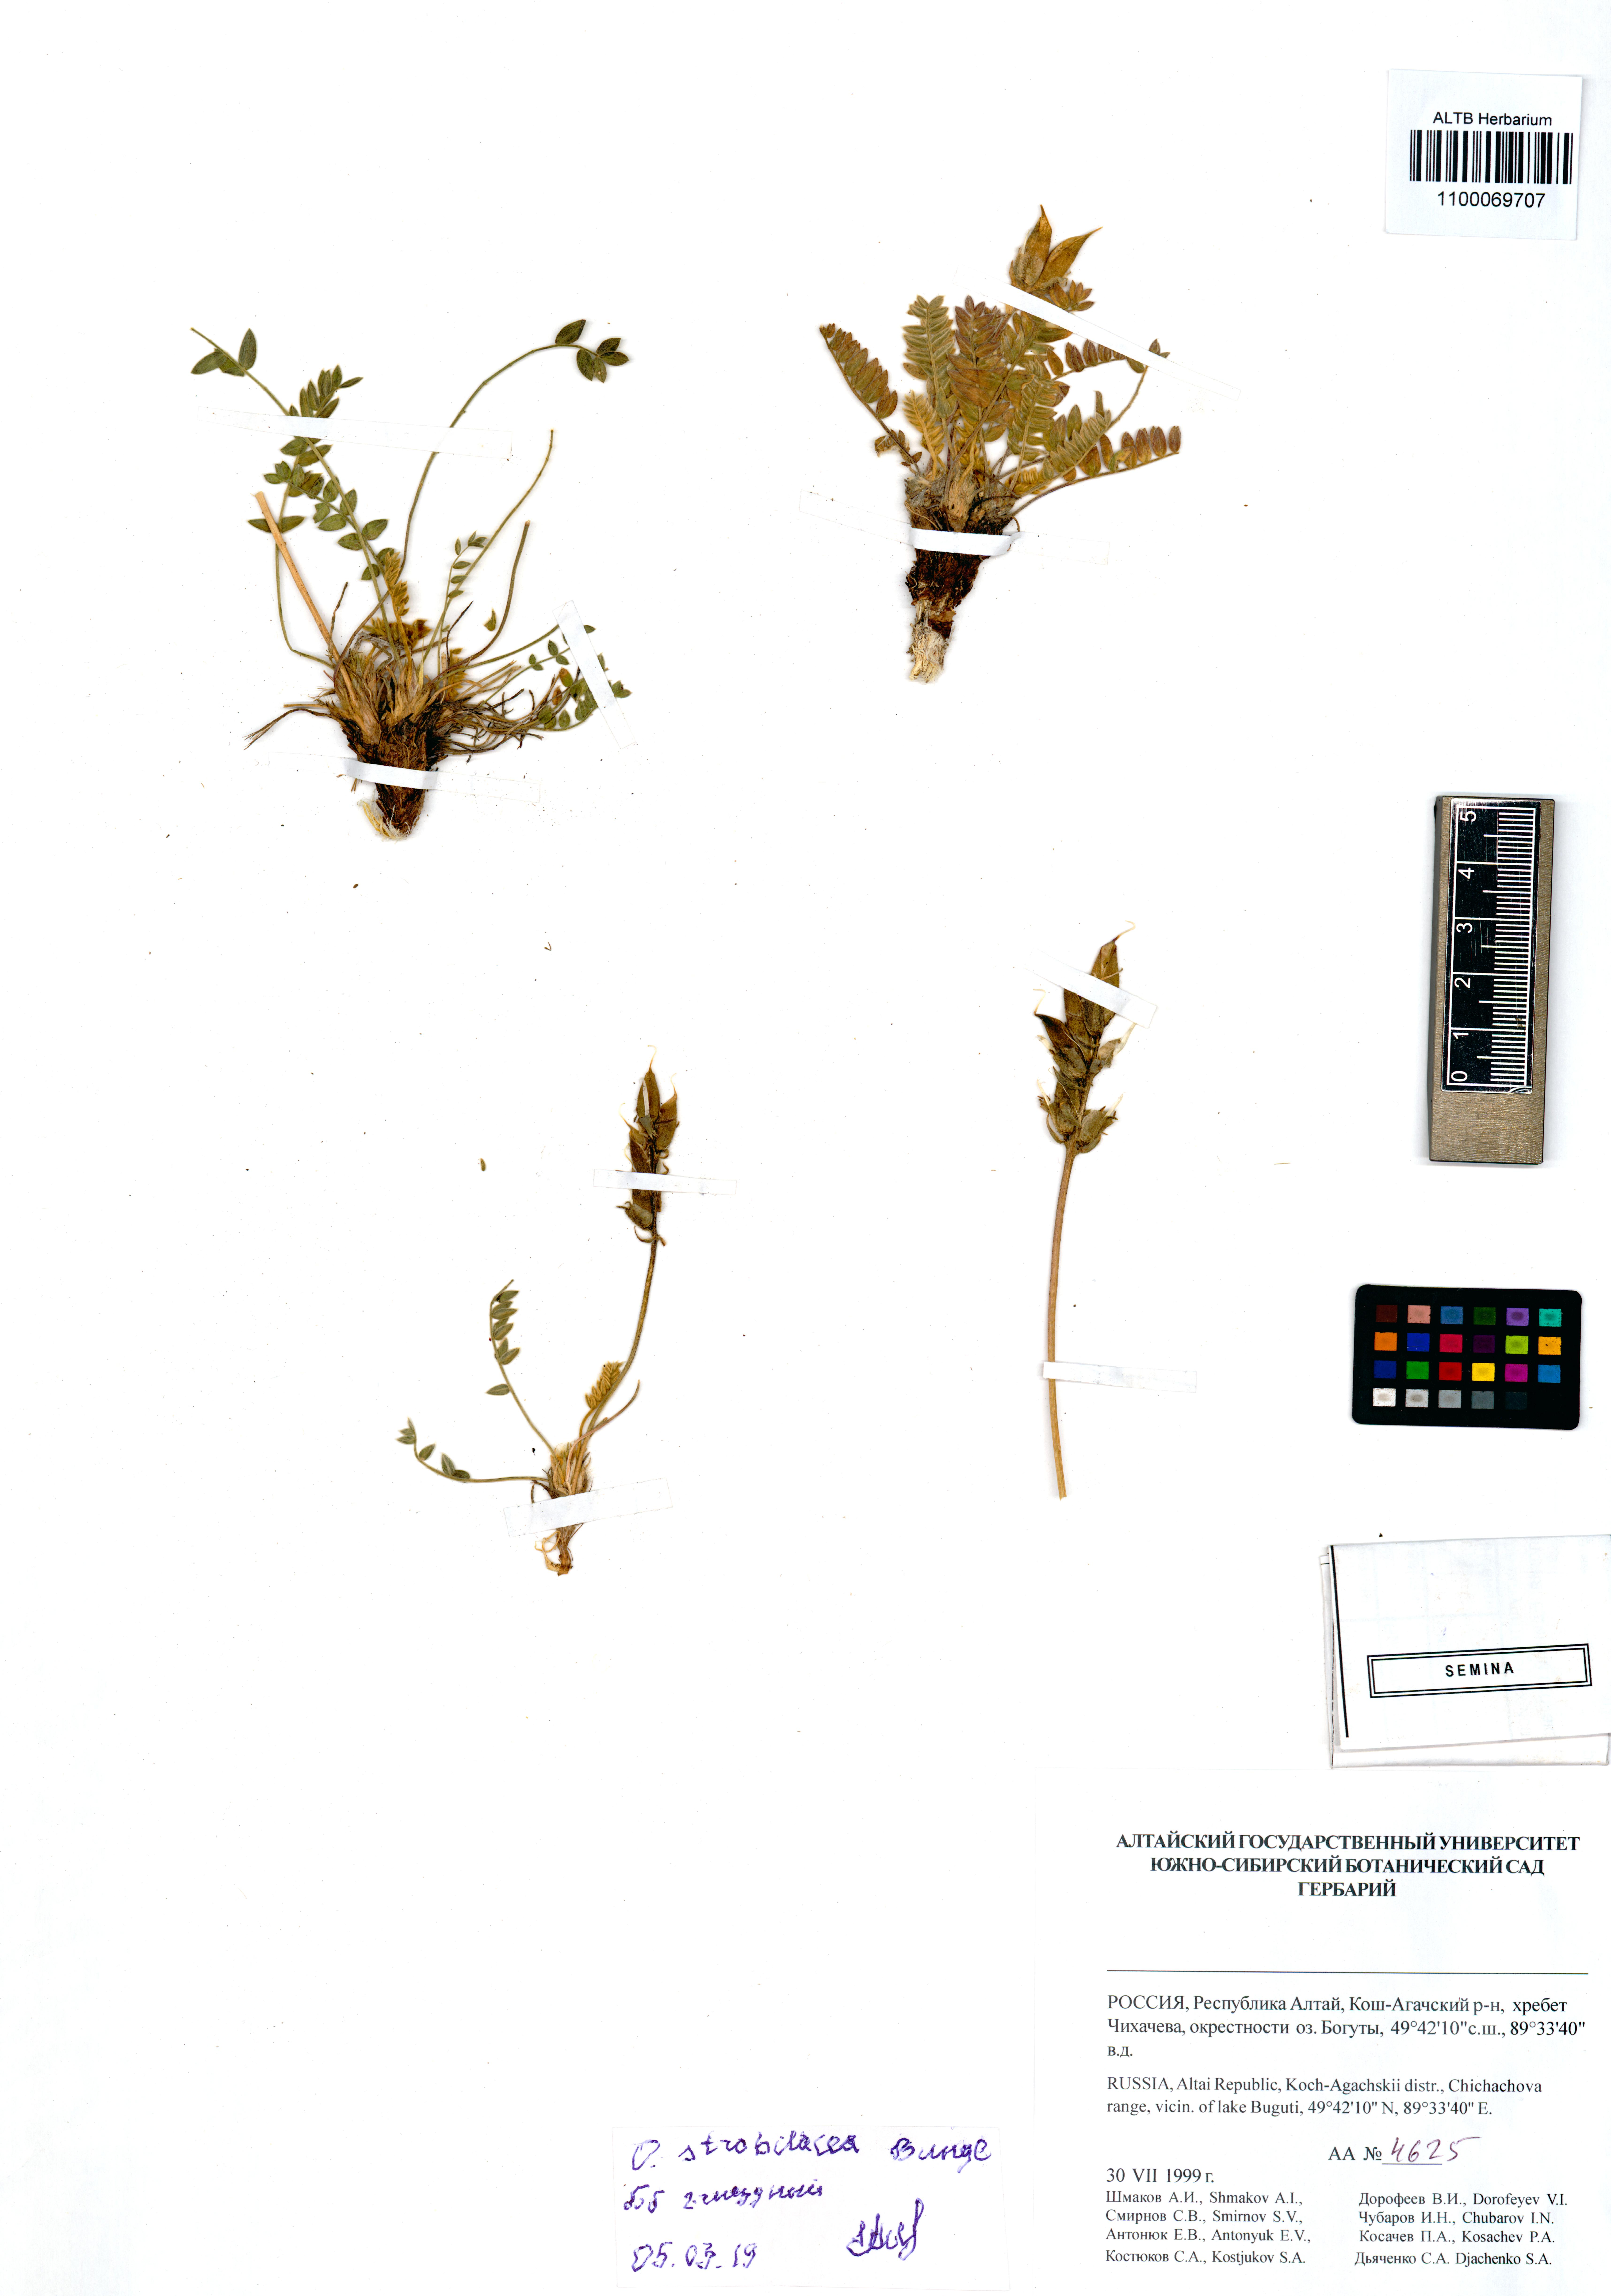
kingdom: Plantae
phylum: Tracheophyta
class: Magnoliopsida
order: Fabales
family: Fabaceae
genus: Oxytropis
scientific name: Oxytropis strobilacea
